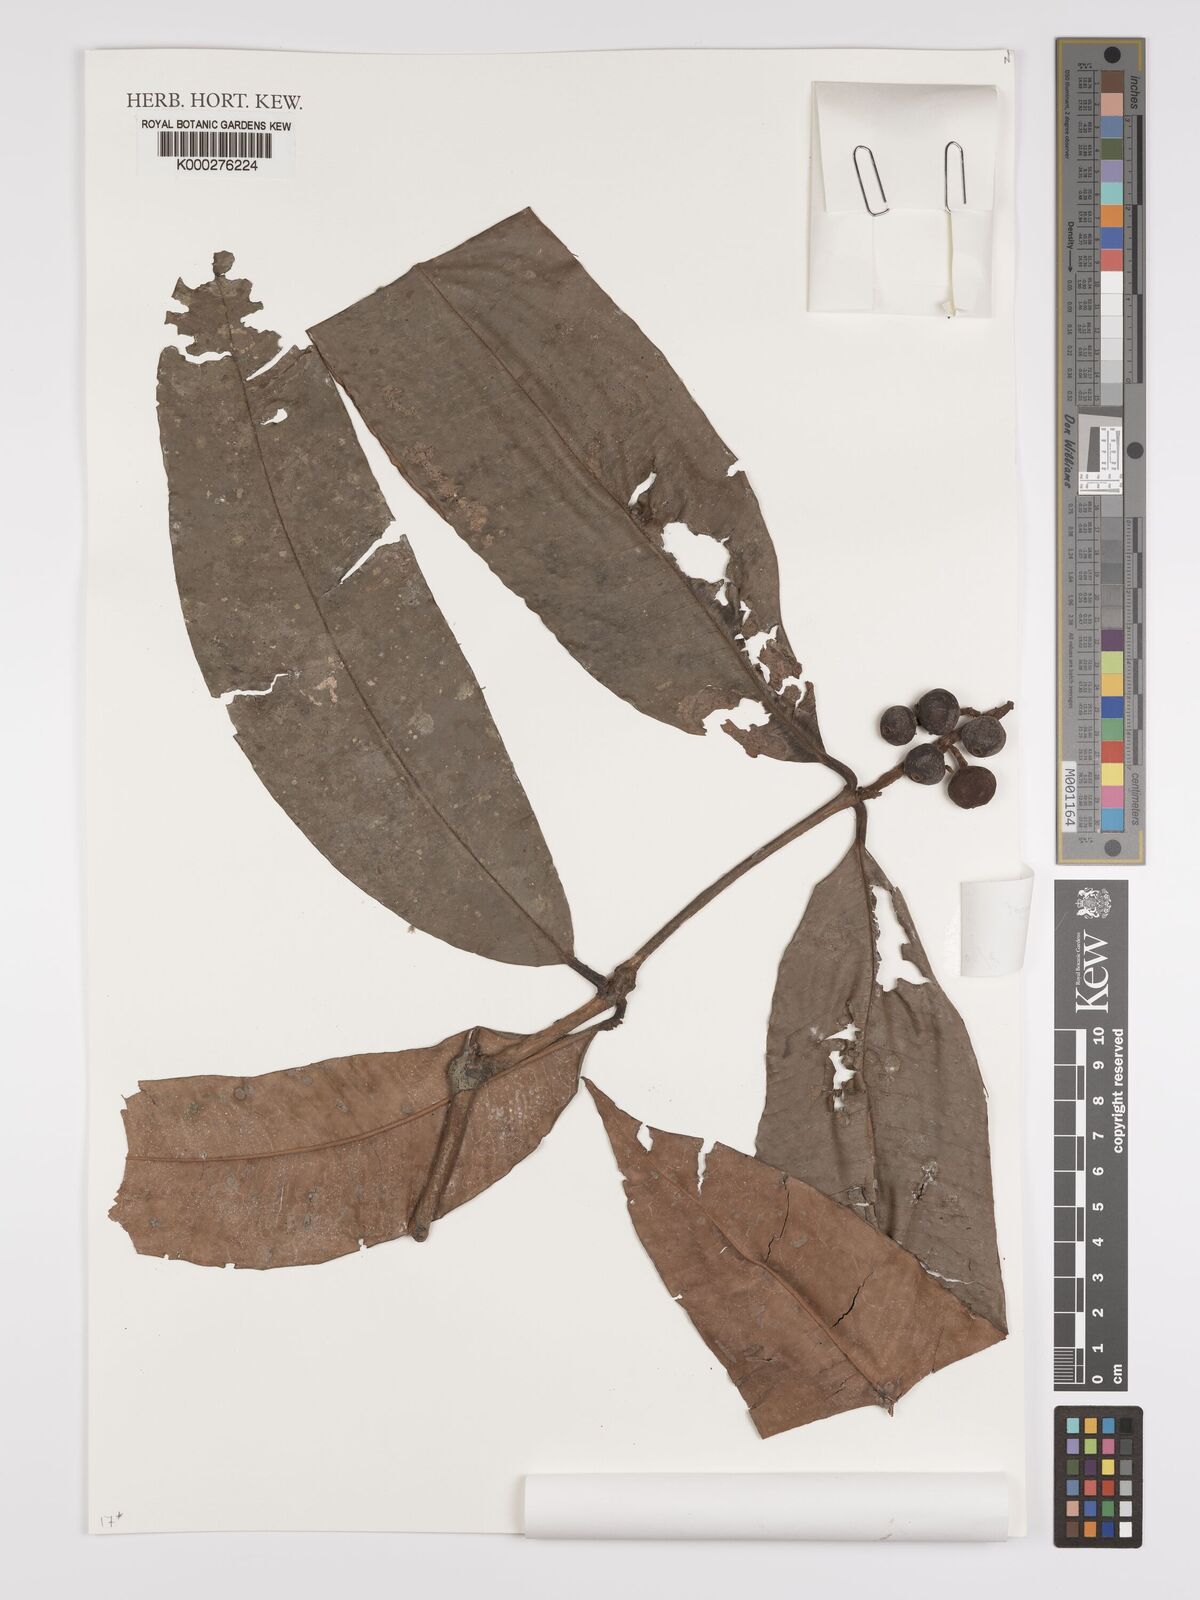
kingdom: Plantae
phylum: Tracheophyta
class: Magnoliopsida
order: Myrtales
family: Myrtaceae
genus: Myrcia
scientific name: Myrcia neospeciosa
